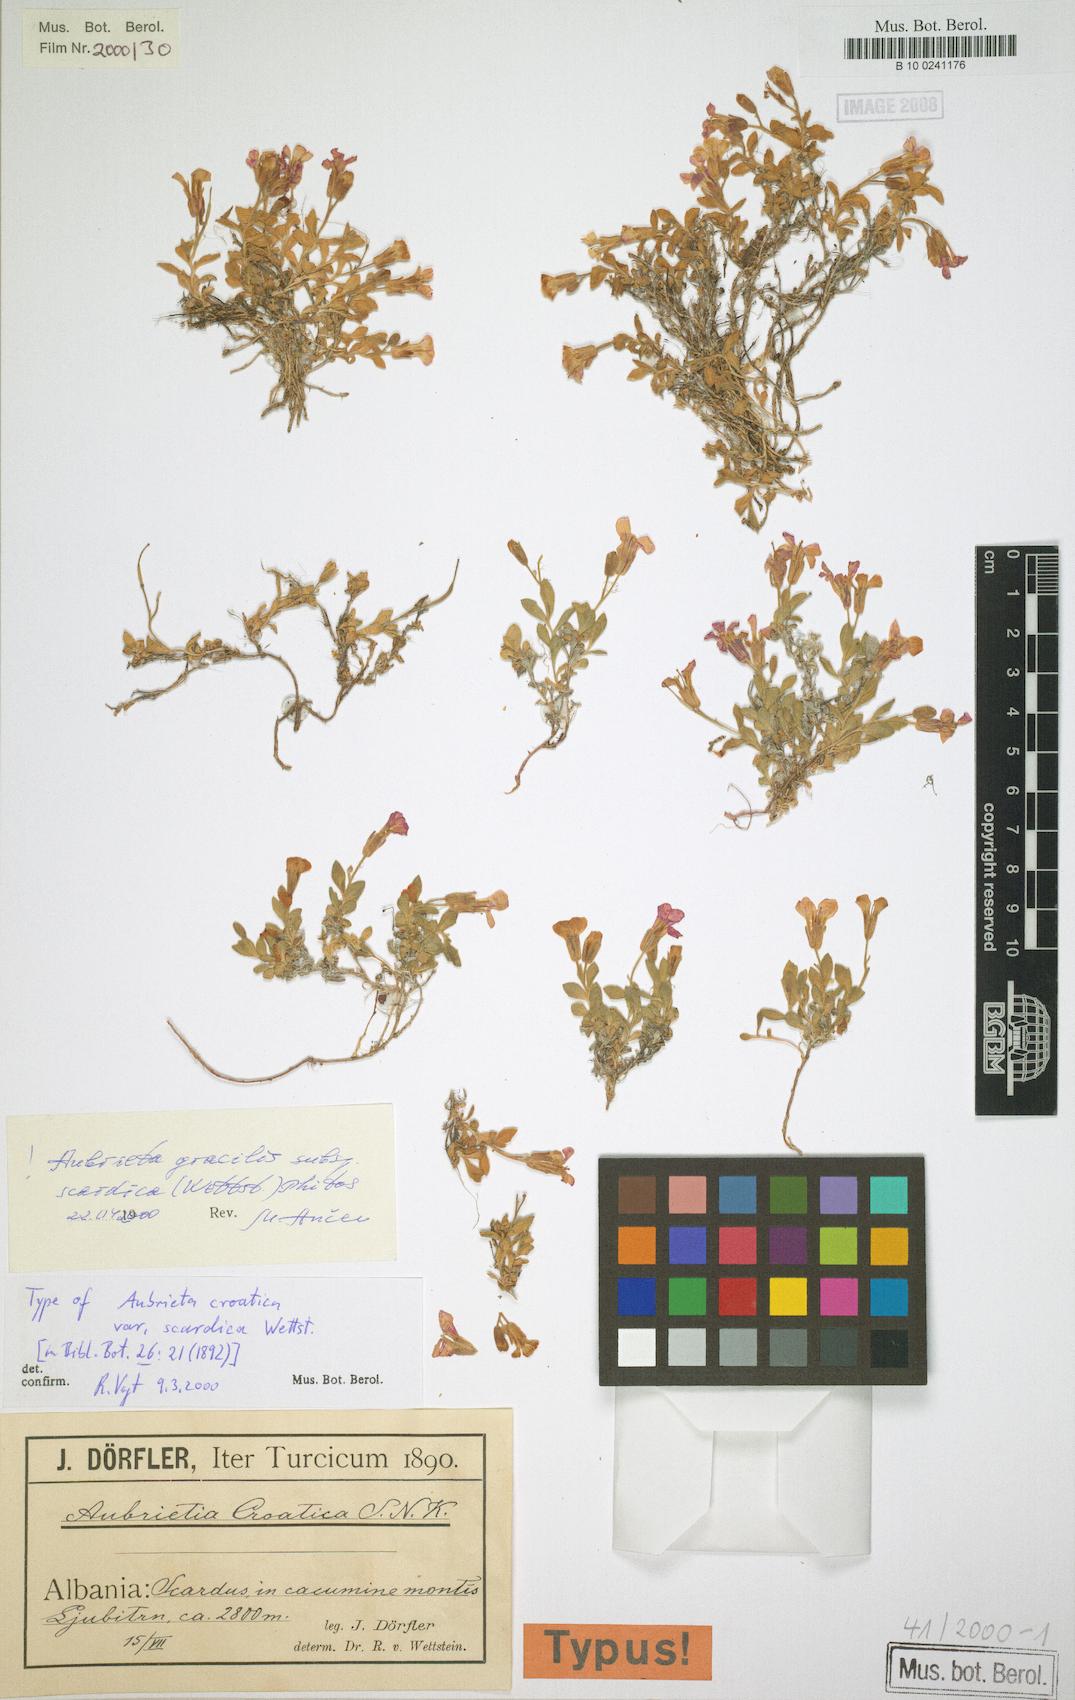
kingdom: Plantae
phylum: Tracheophyta
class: Magnoliopsida
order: Brassicales
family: Brassicaceae
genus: Aubrieta
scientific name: Aubrieta scardica
